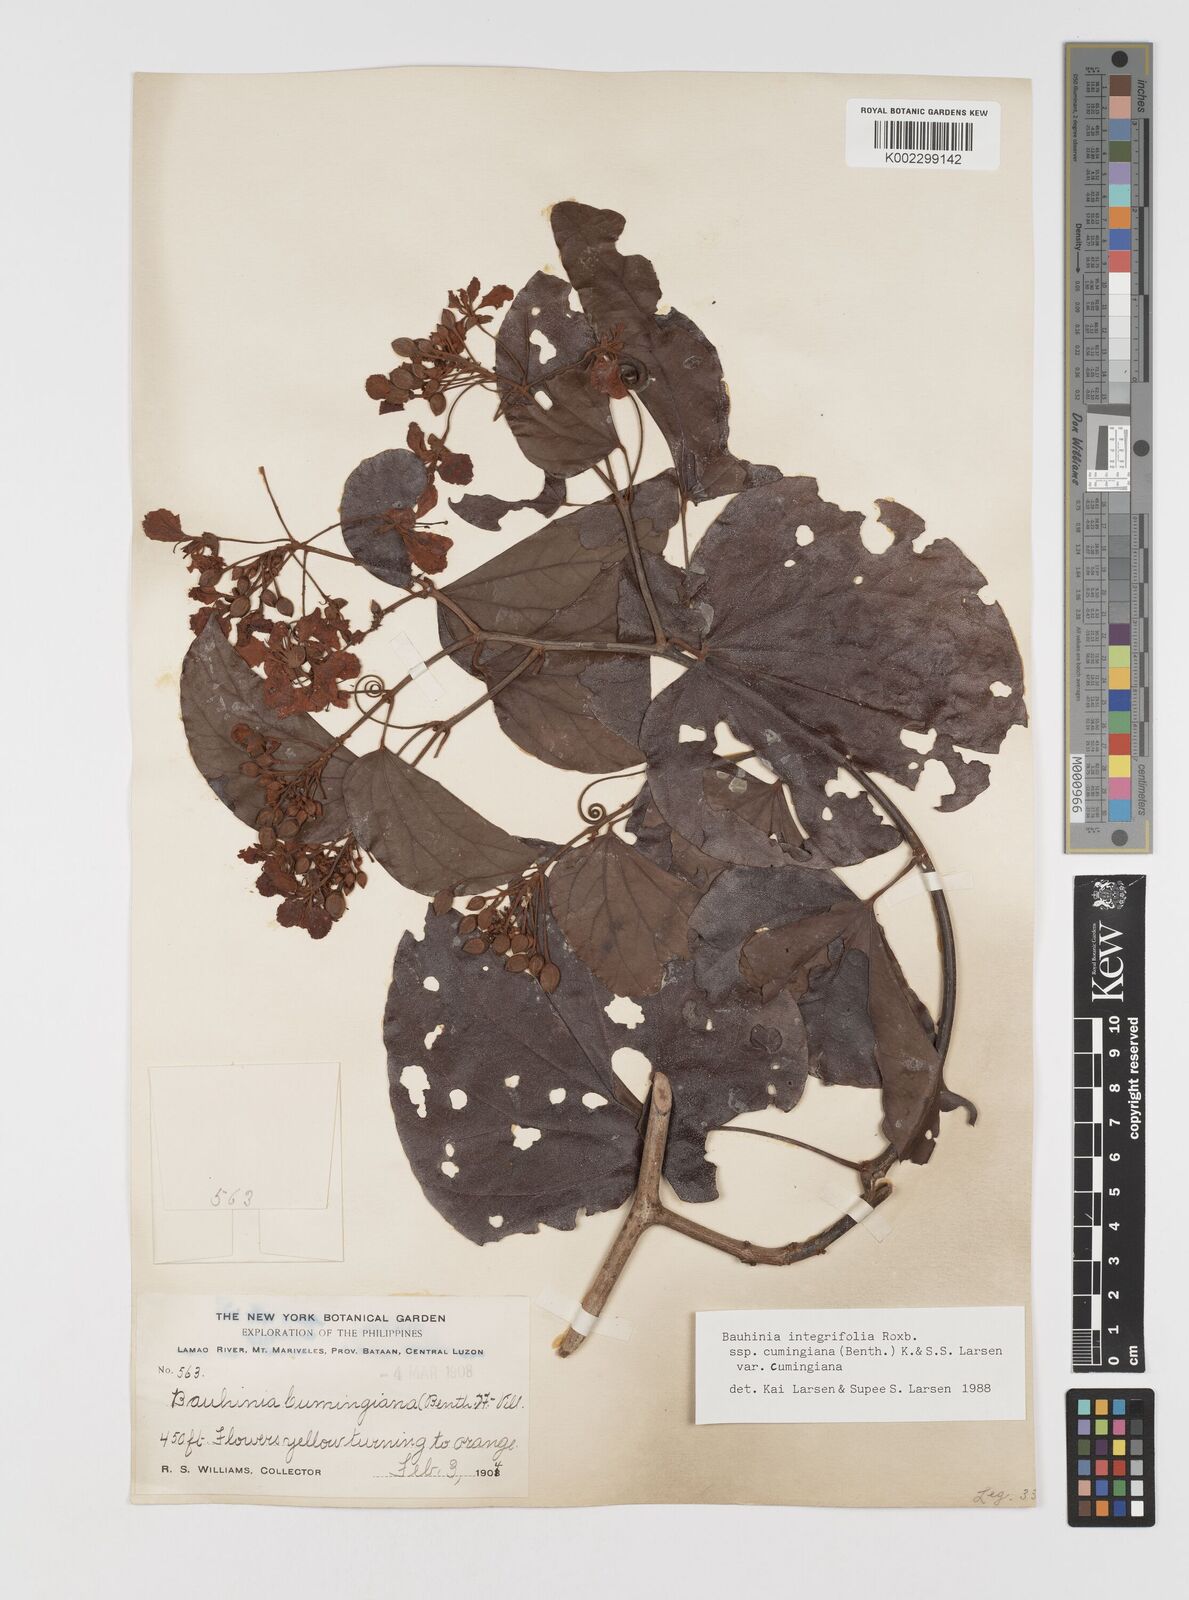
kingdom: Plantae
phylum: Tracheophyta
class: Magnoliopsida
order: Fabales
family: Fabaceae
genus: Phanera
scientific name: Phanera integrifolia
